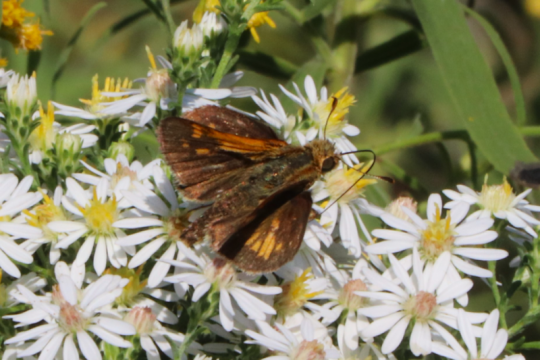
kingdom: Animalia
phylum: Arthropoda
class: Insecta
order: Lepidoptera
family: Hesperiidae
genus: Polites
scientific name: Polites coras
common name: Peck's Skipper
